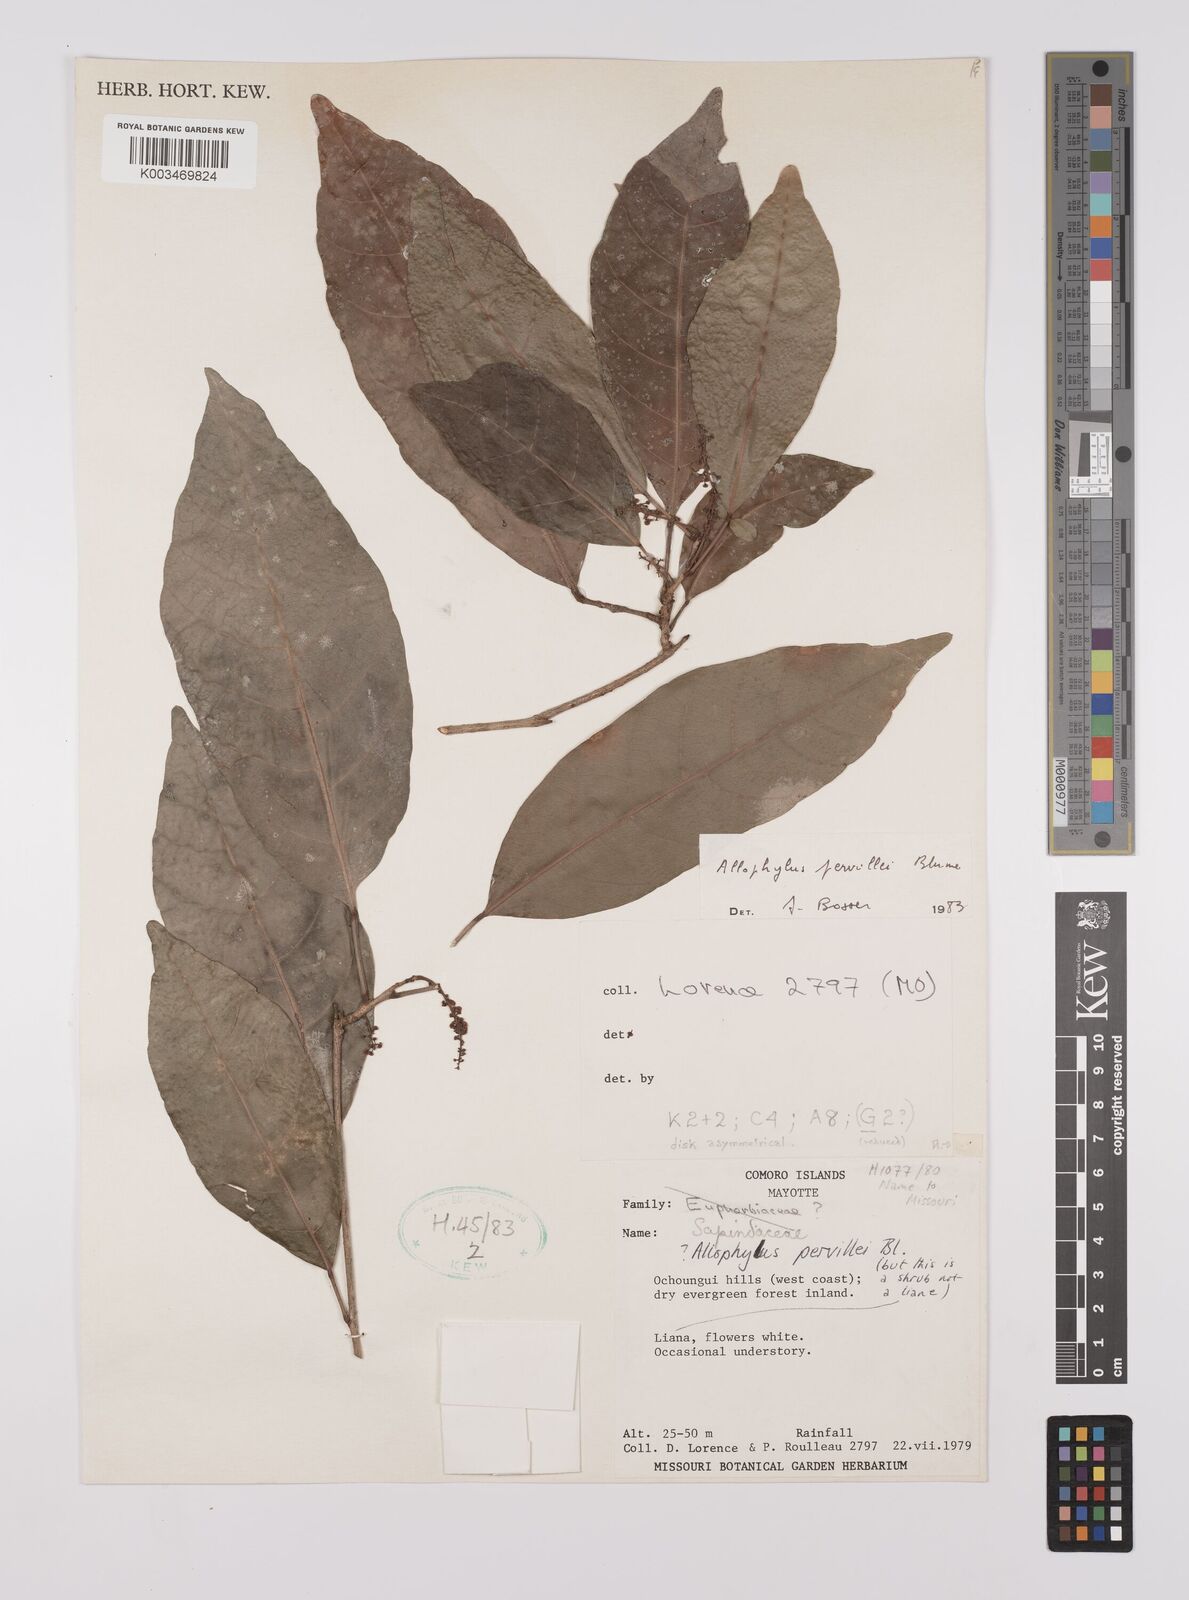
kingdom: Plantae
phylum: Tracheophyta
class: Magnoliopsida
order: Sapindales
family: Sapindaceae
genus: Allophylus
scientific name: Allophylus pervillei
